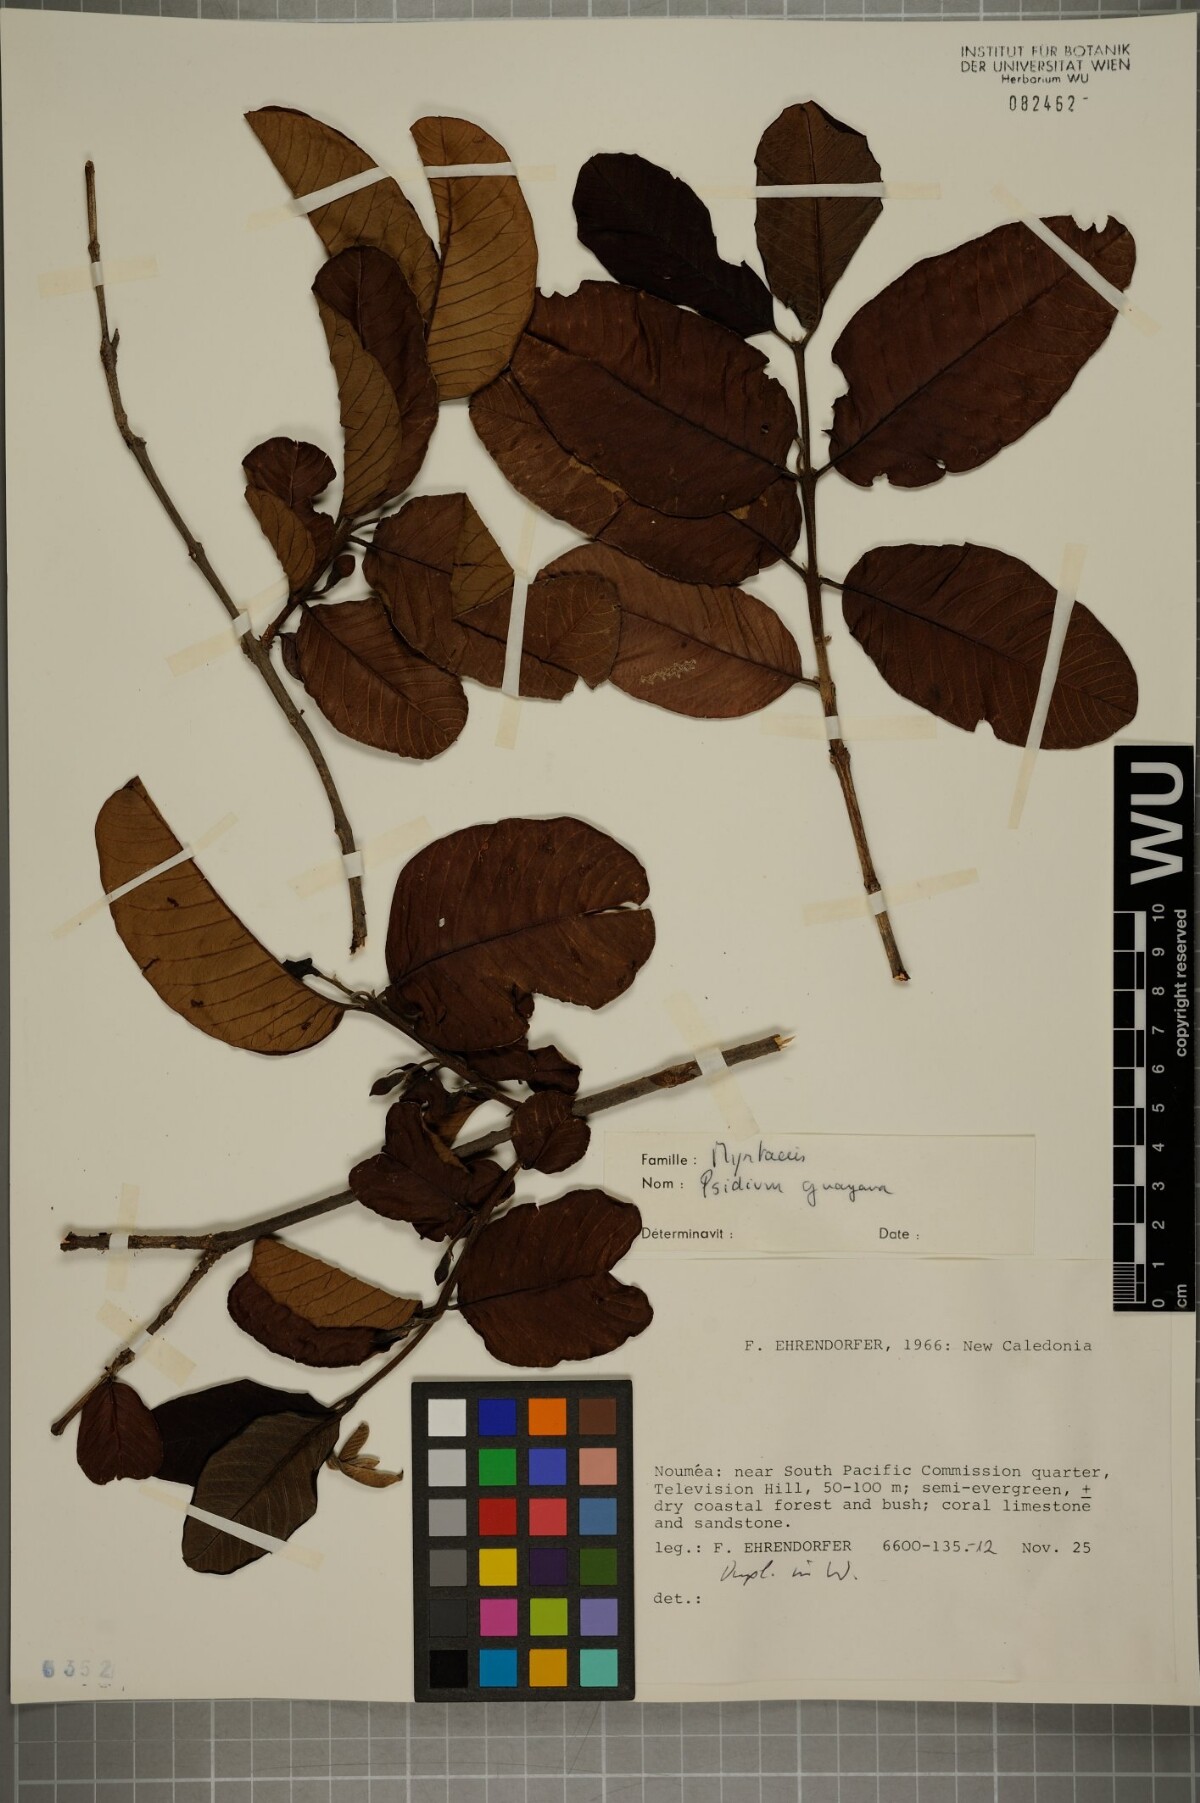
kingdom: Plantae
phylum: Tracheophyta
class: Magnoliopsida
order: Myrtales
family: Myrtaceae
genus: Psidium
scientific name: Psidium guajava
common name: Guava
